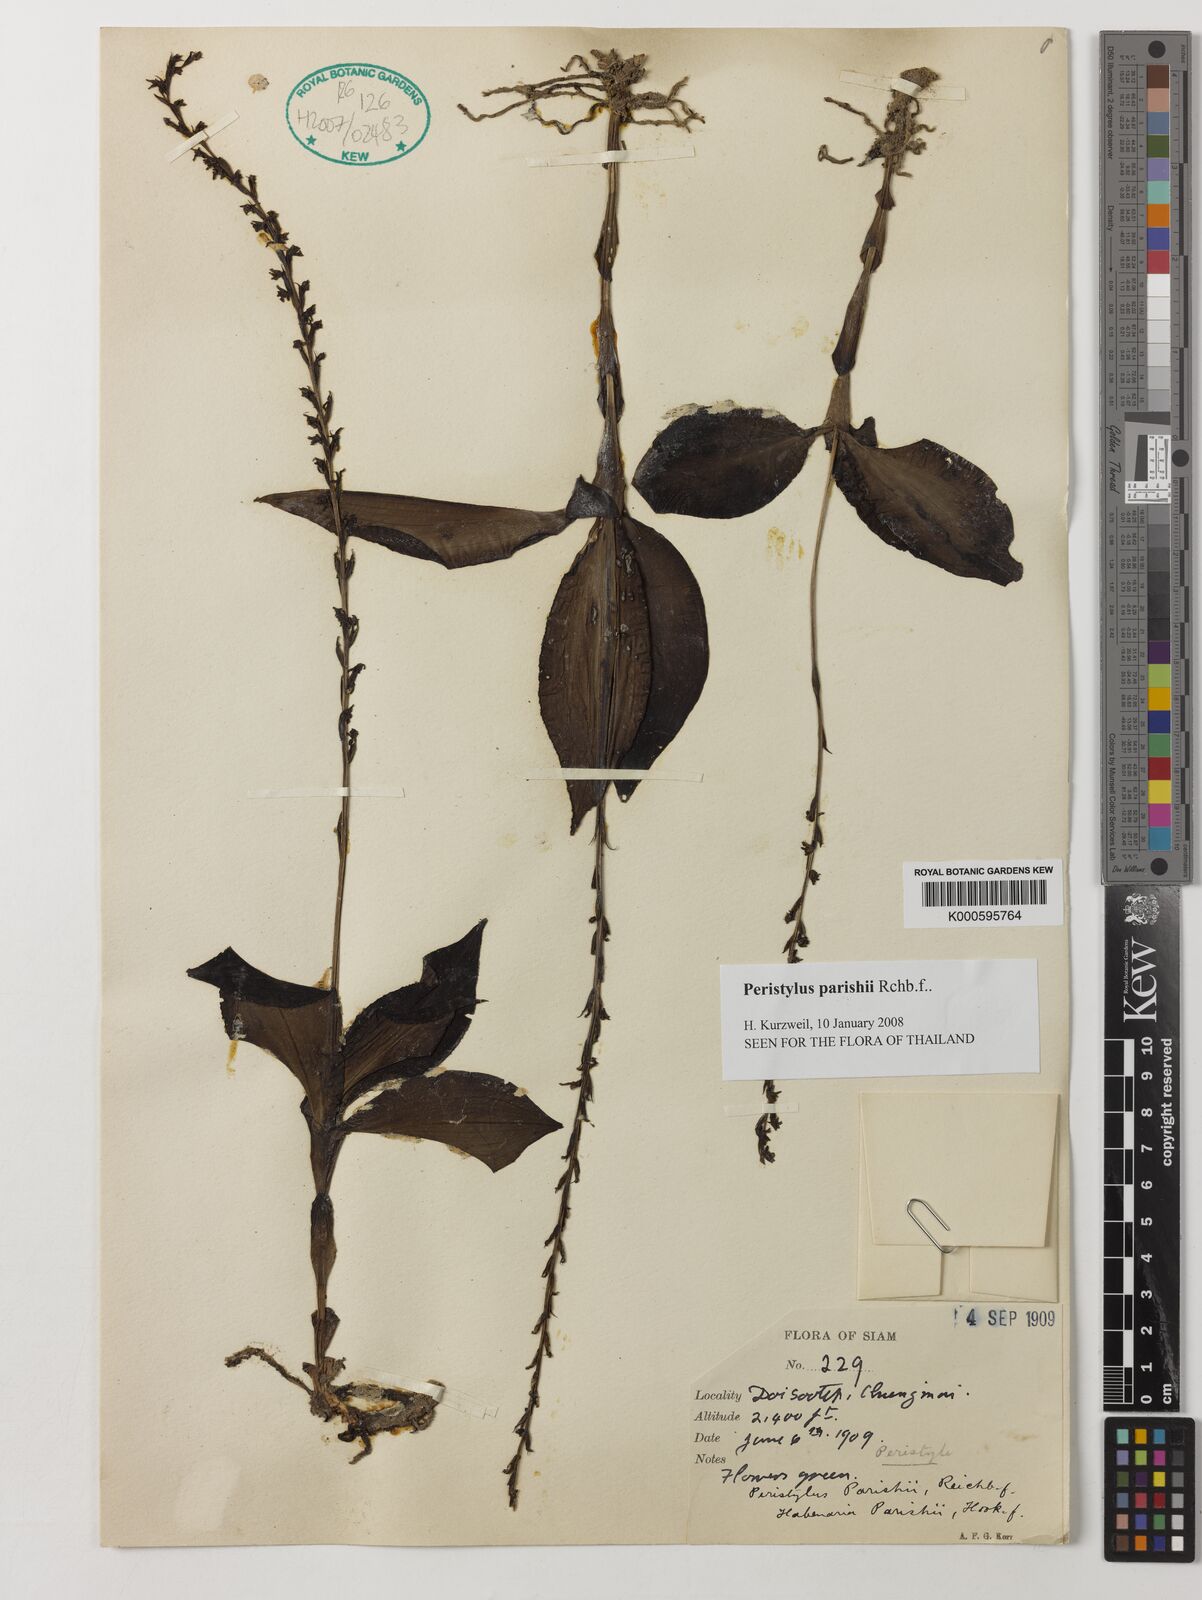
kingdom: Plantae
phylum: Tracheophyta
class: Liliopsida
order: Asparagales
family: Orchidaceae
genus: Peristylus
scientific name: Peristylus goodyeroides
